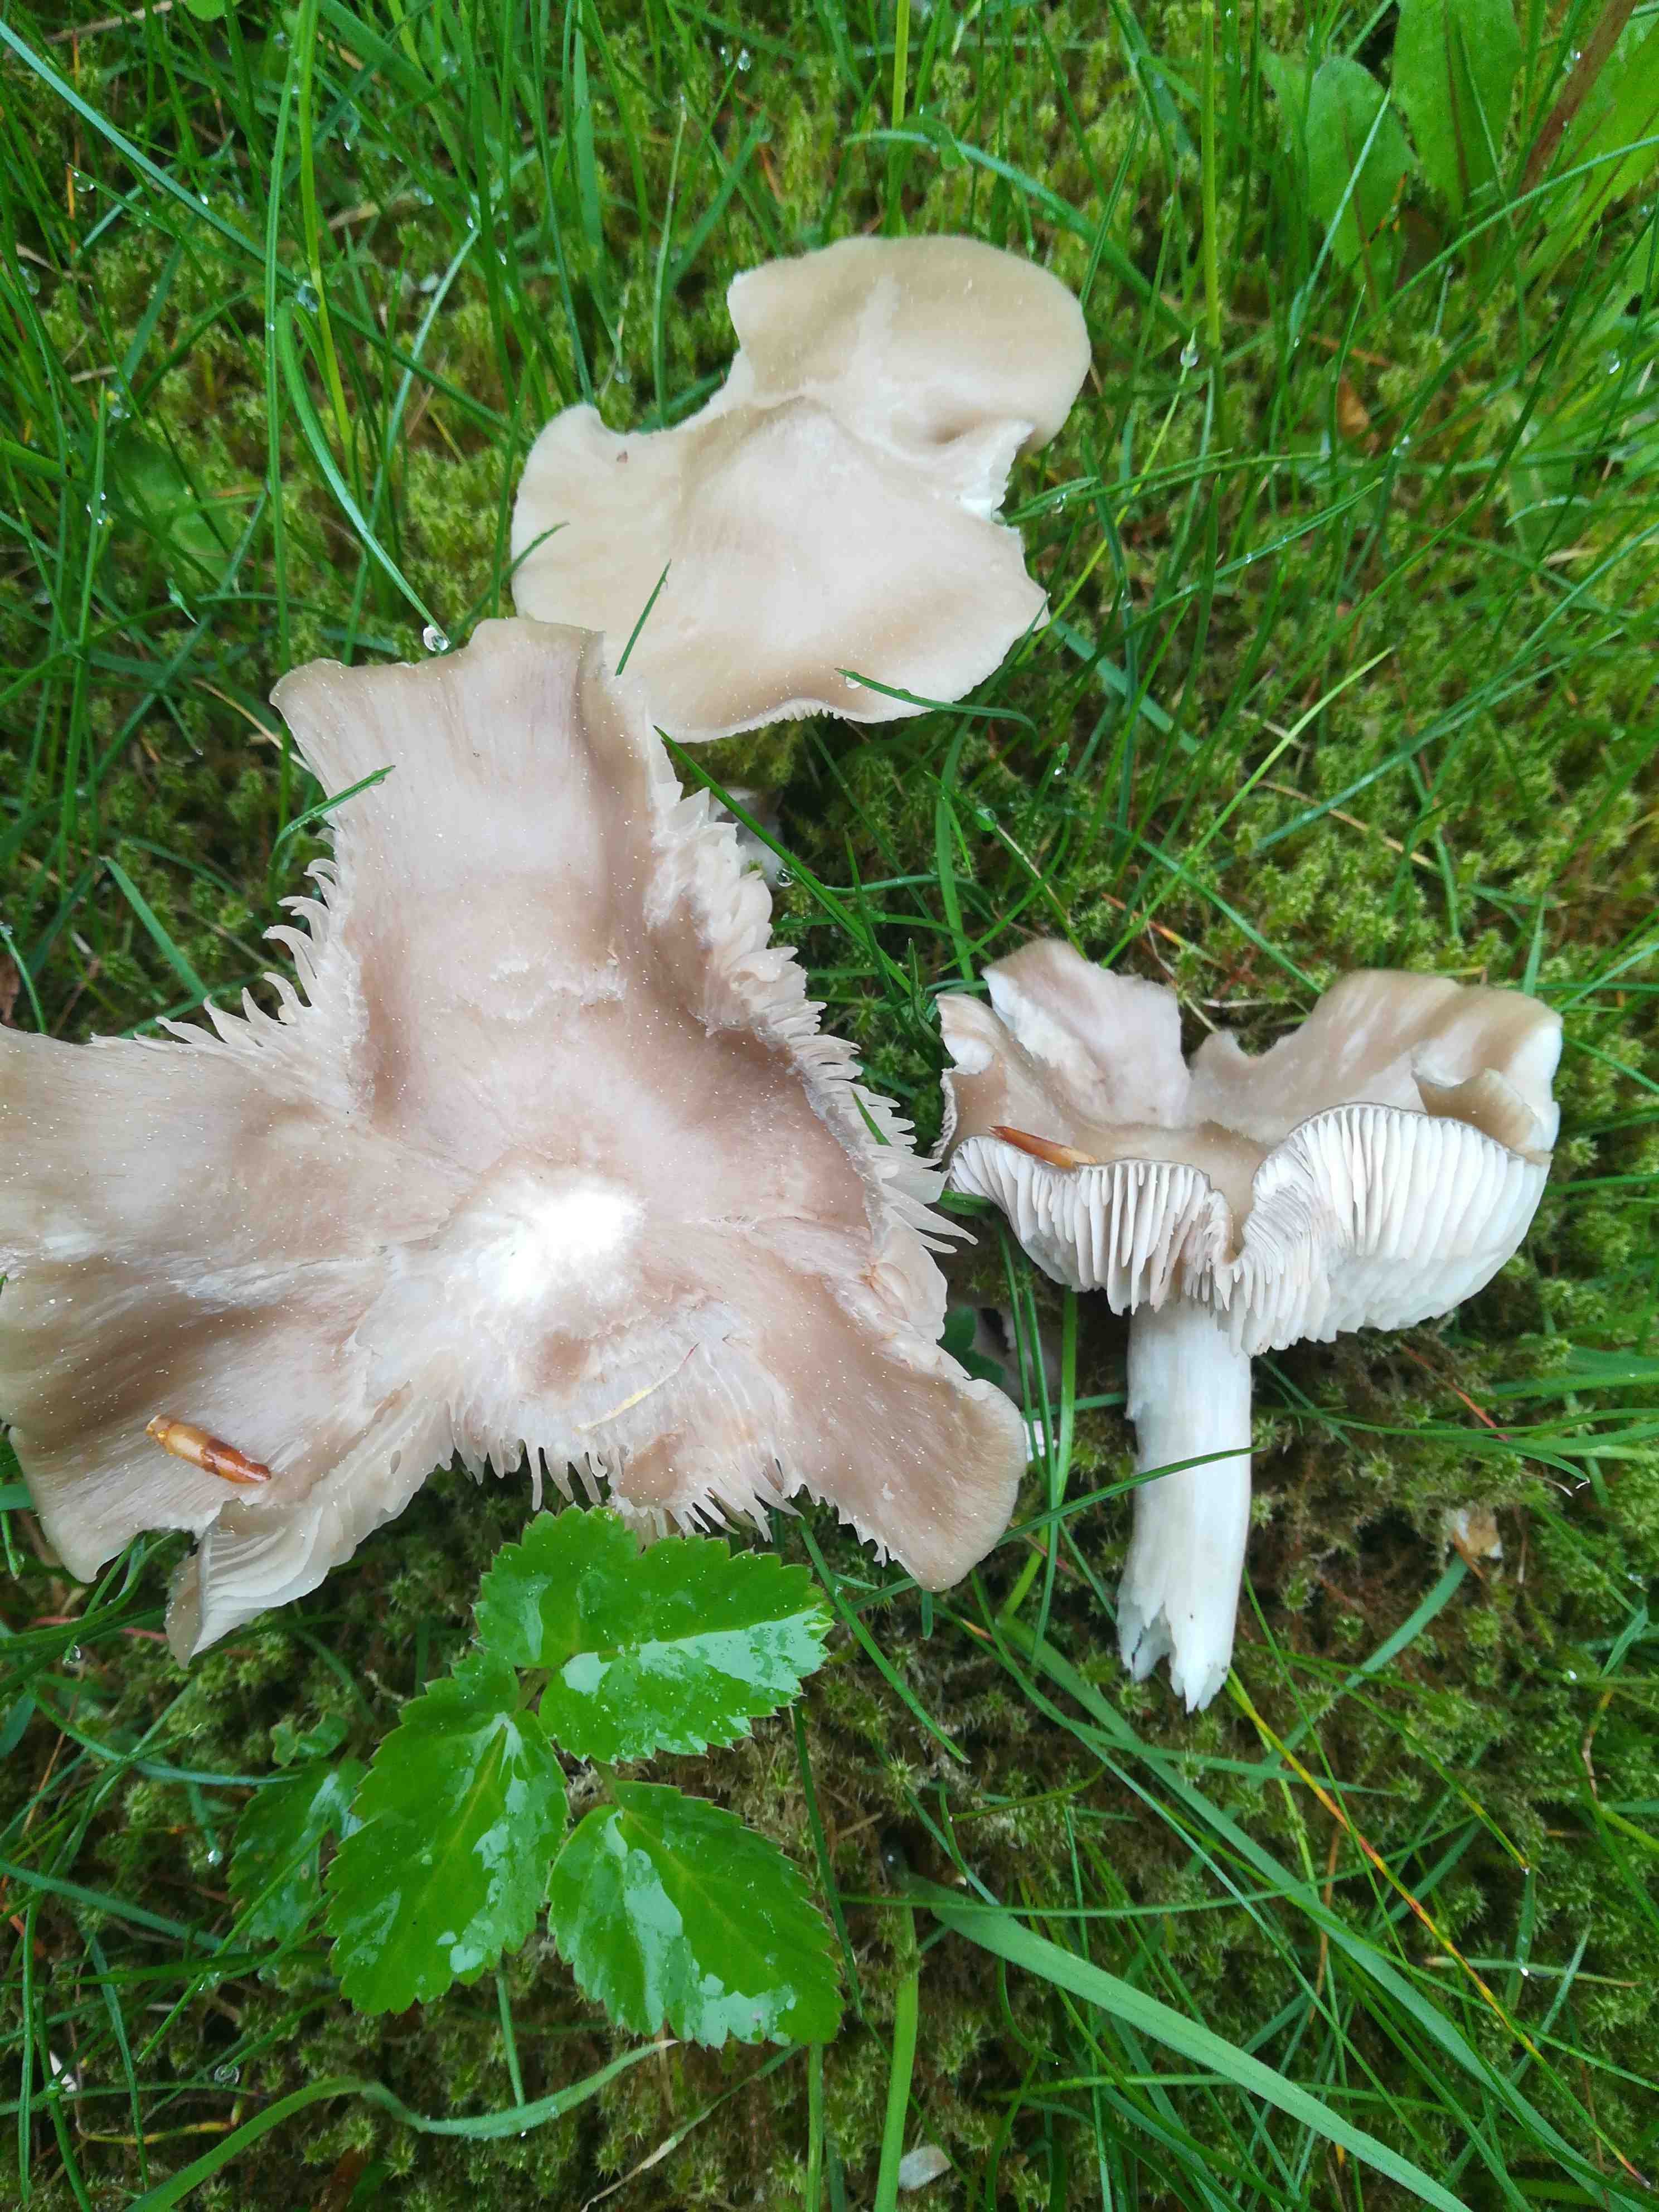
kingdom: Fungi
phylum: Basidiomycota
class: Agaricomycetes
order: Agaricales
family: Entolomataceae
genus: Entoloma
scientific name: Entoloma
